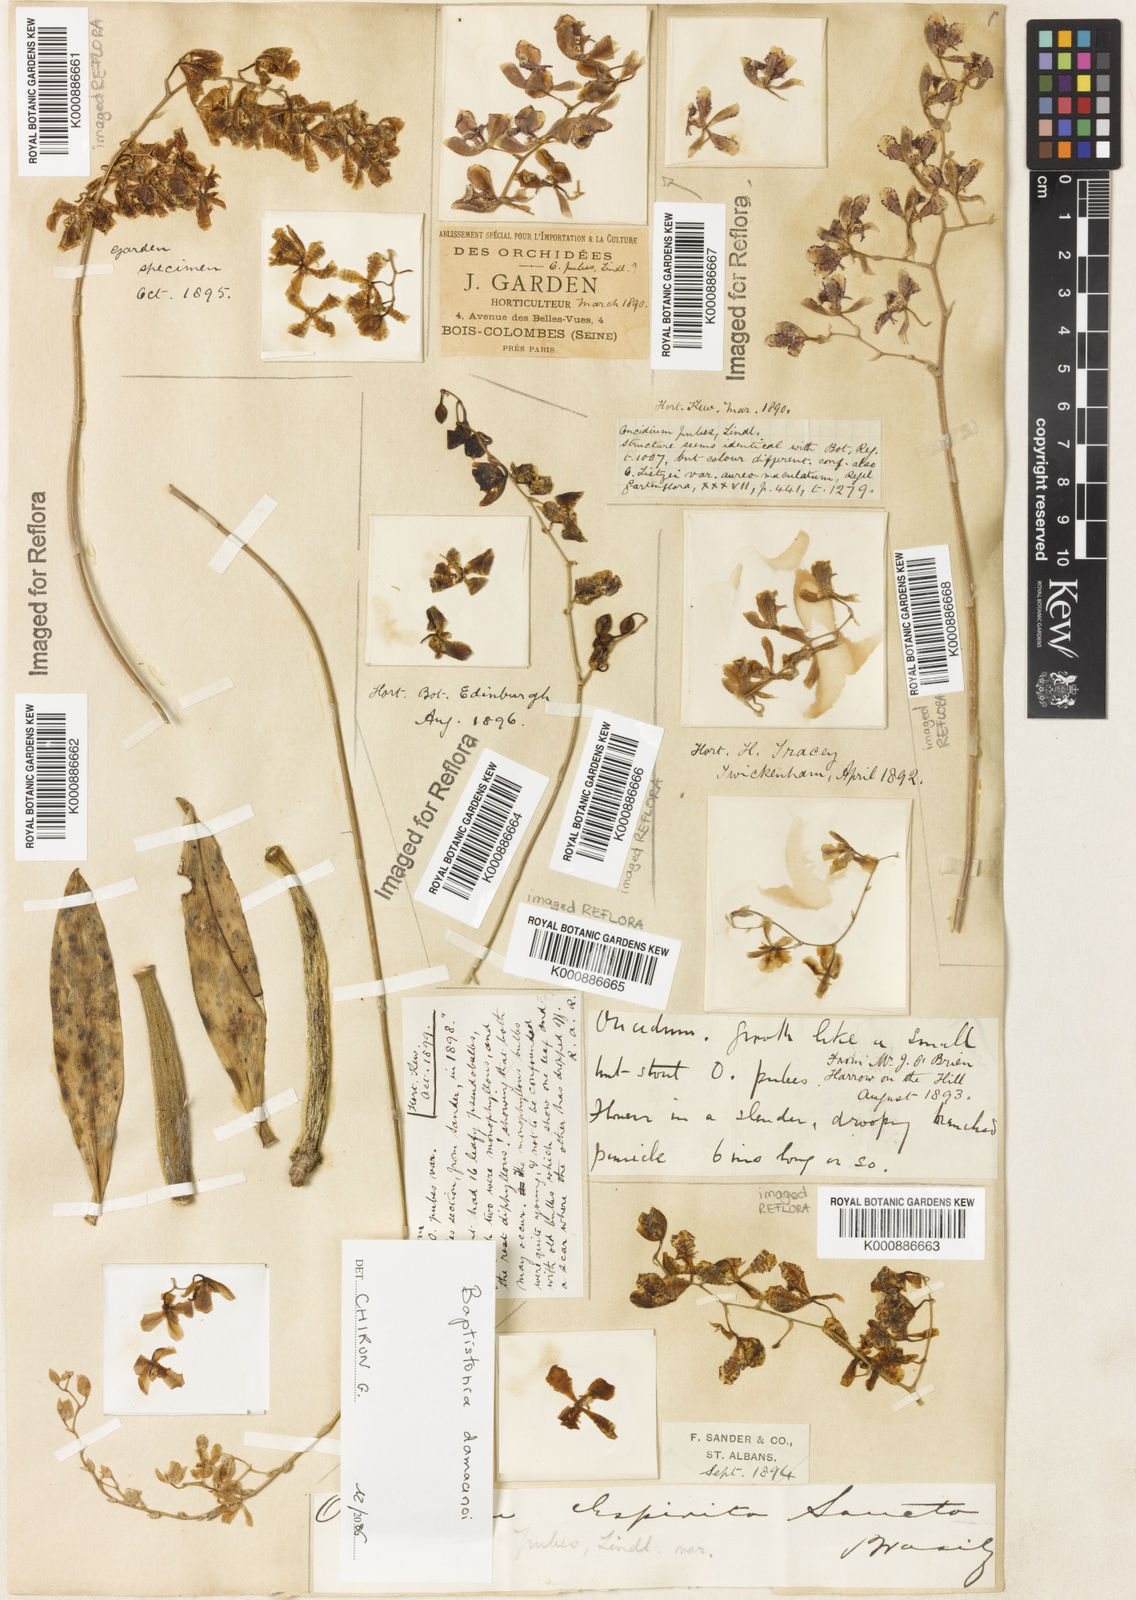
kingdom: Plantae
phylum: Tracheophyta
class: Liliopsida
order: Asparagales
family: Orchidaceae
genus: Gomesa
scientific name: Gomesa pubes
